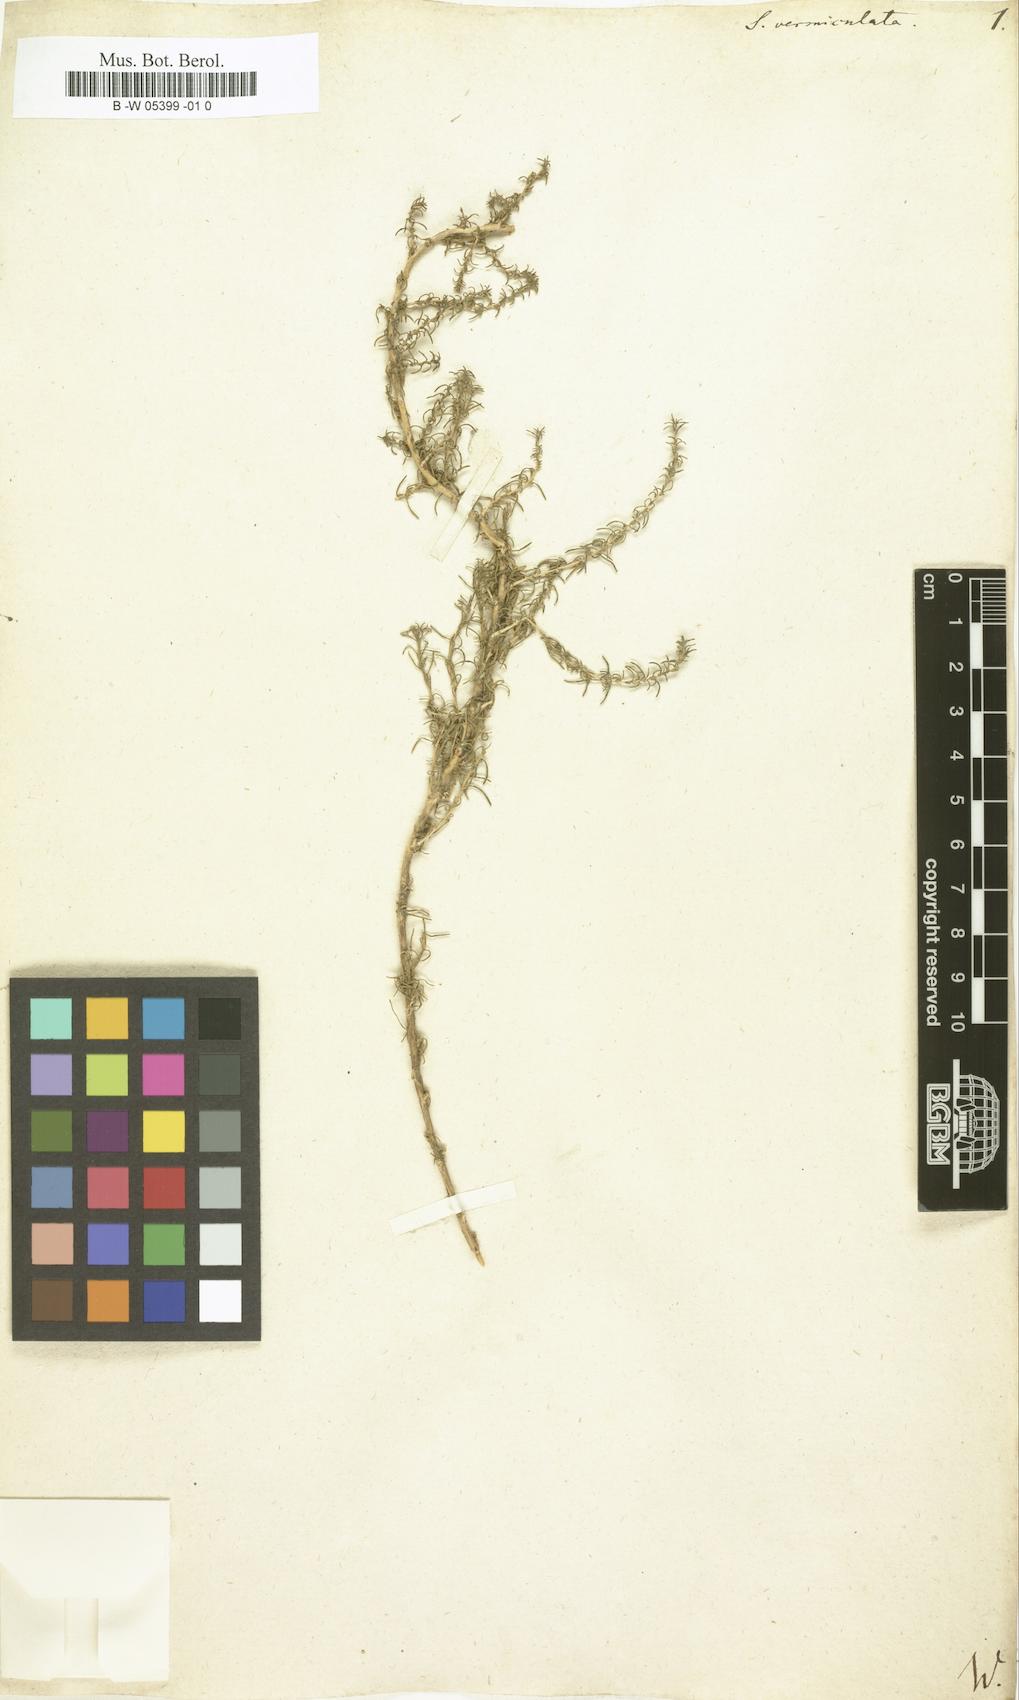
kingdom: Plantae
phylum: Tracheophyta
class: Magnoliopsida
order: Caryophyllales
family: Amaranthaceae
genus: Nitrosalsola
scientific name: Nitrosalsola vermiculata
